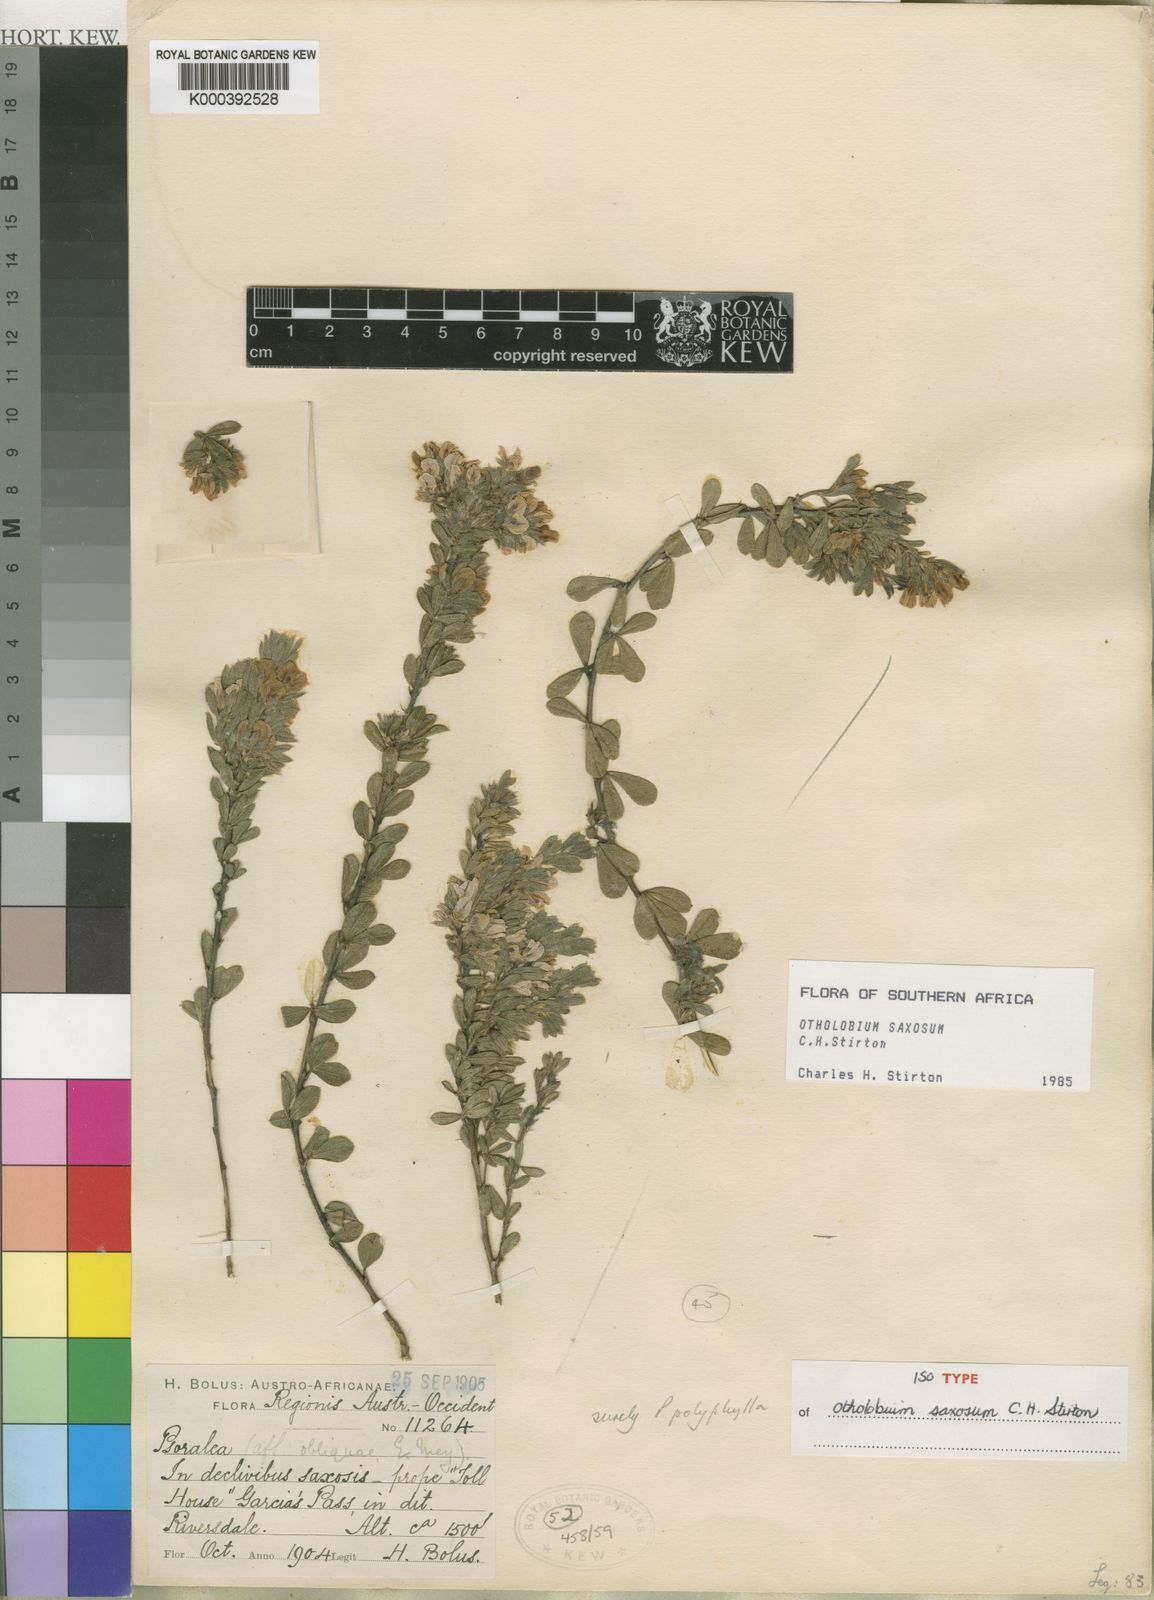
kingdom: Plantae
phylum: Tracheophyta
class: Magnoliopsida
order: Fabales
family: Fabaceae
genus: Psoralea
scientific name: Psoralea saxosa
